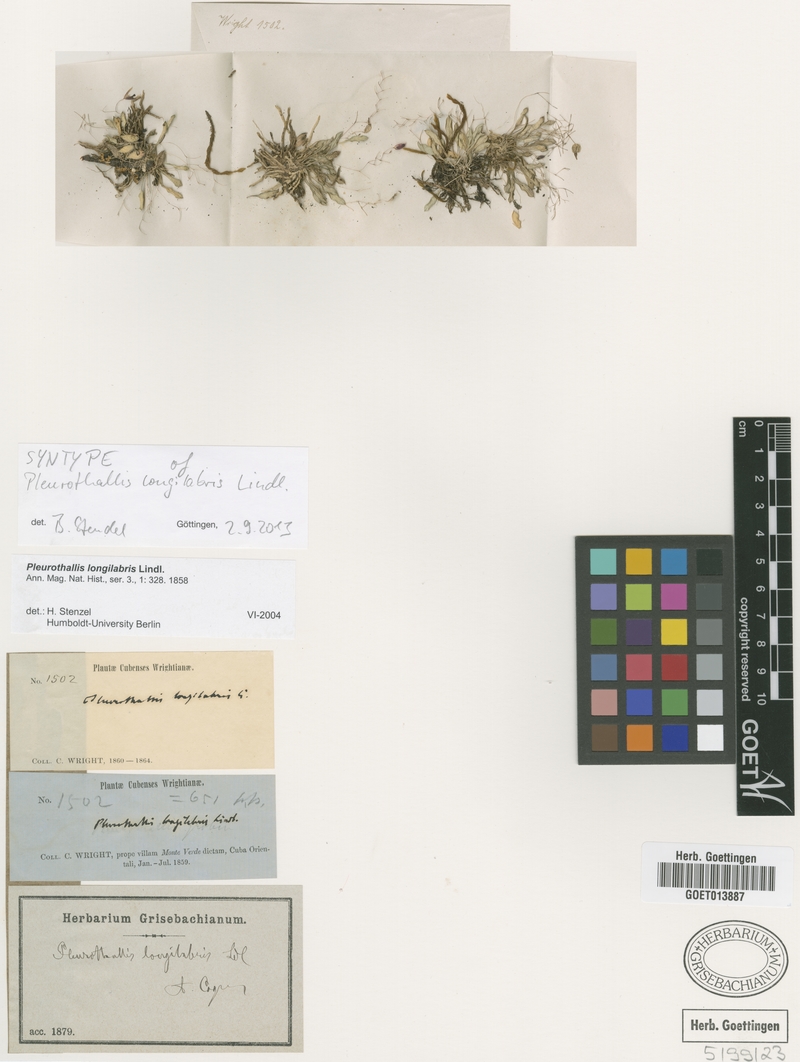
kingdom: Plantae
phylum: Tracheophyta
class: Liliopsida
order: Asparagales
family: Orchidaceae
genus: Muscarella
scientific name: Muscarella longilabris
